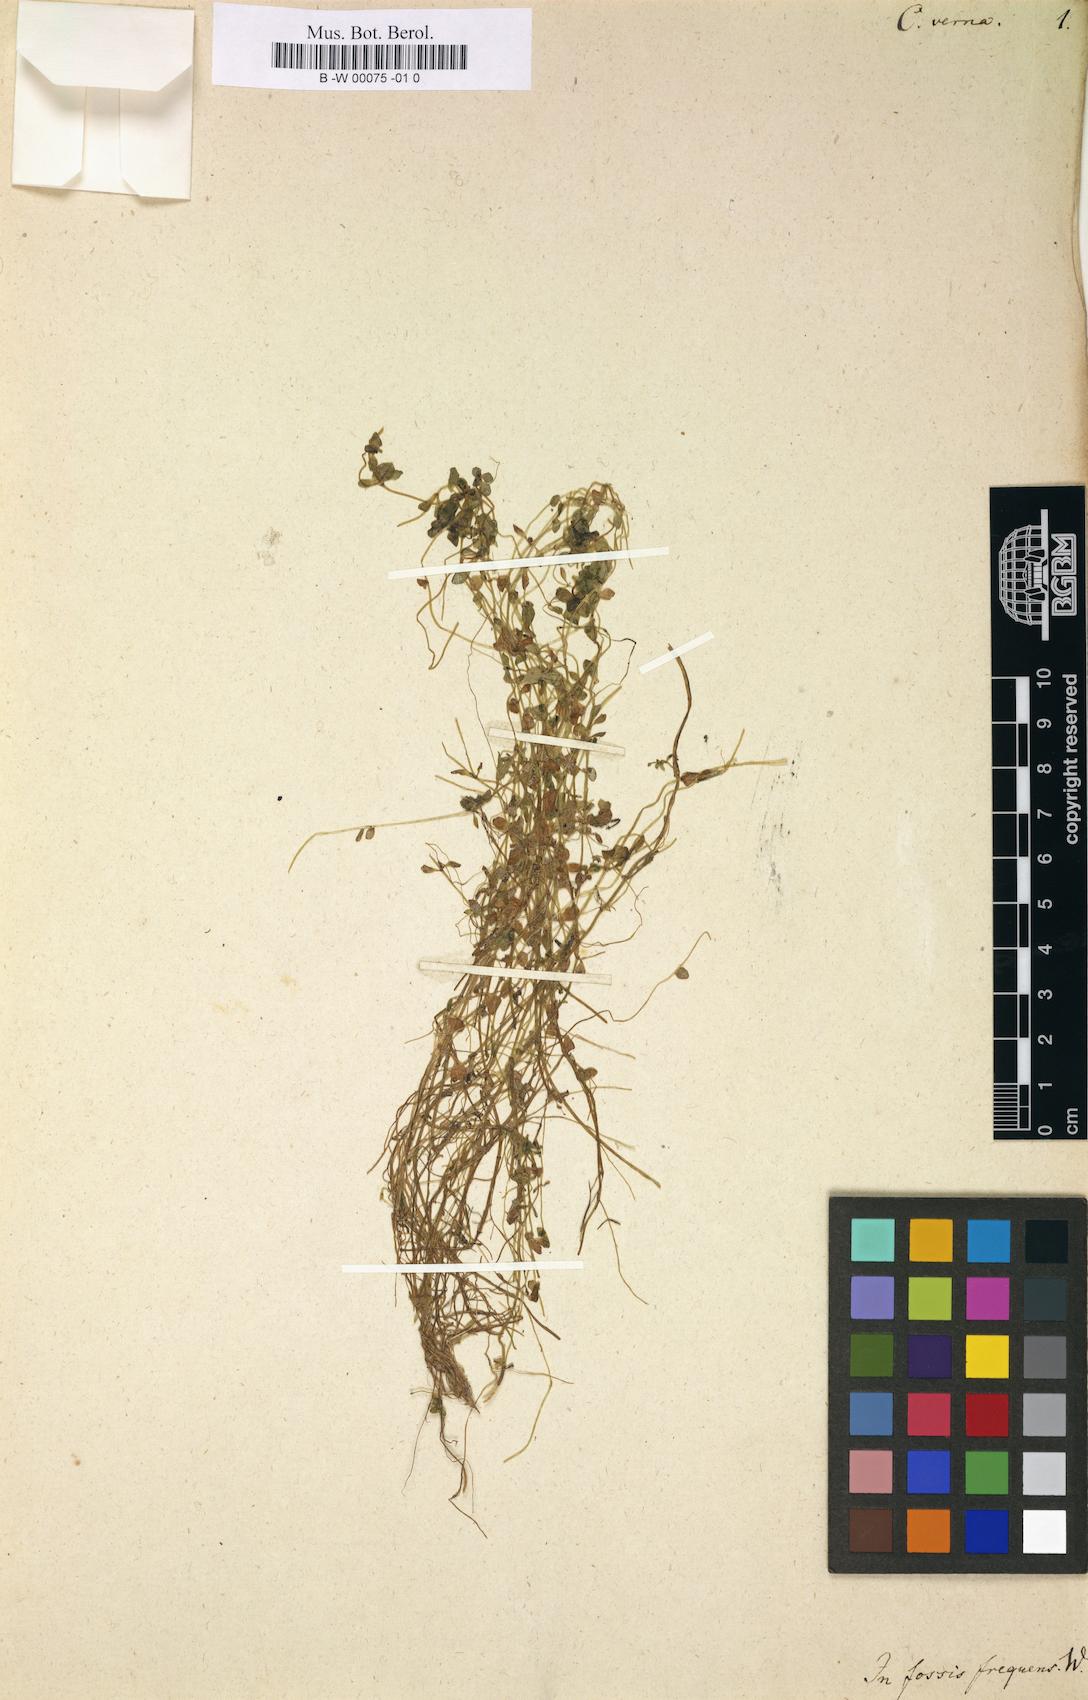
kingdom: Plantae
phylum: Tracheophyta
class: Magnoliopsida
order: Lamiales
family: Plantaginaceae
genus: Callitriche
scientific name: Callitriche palustris
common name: Spring water-starwort
